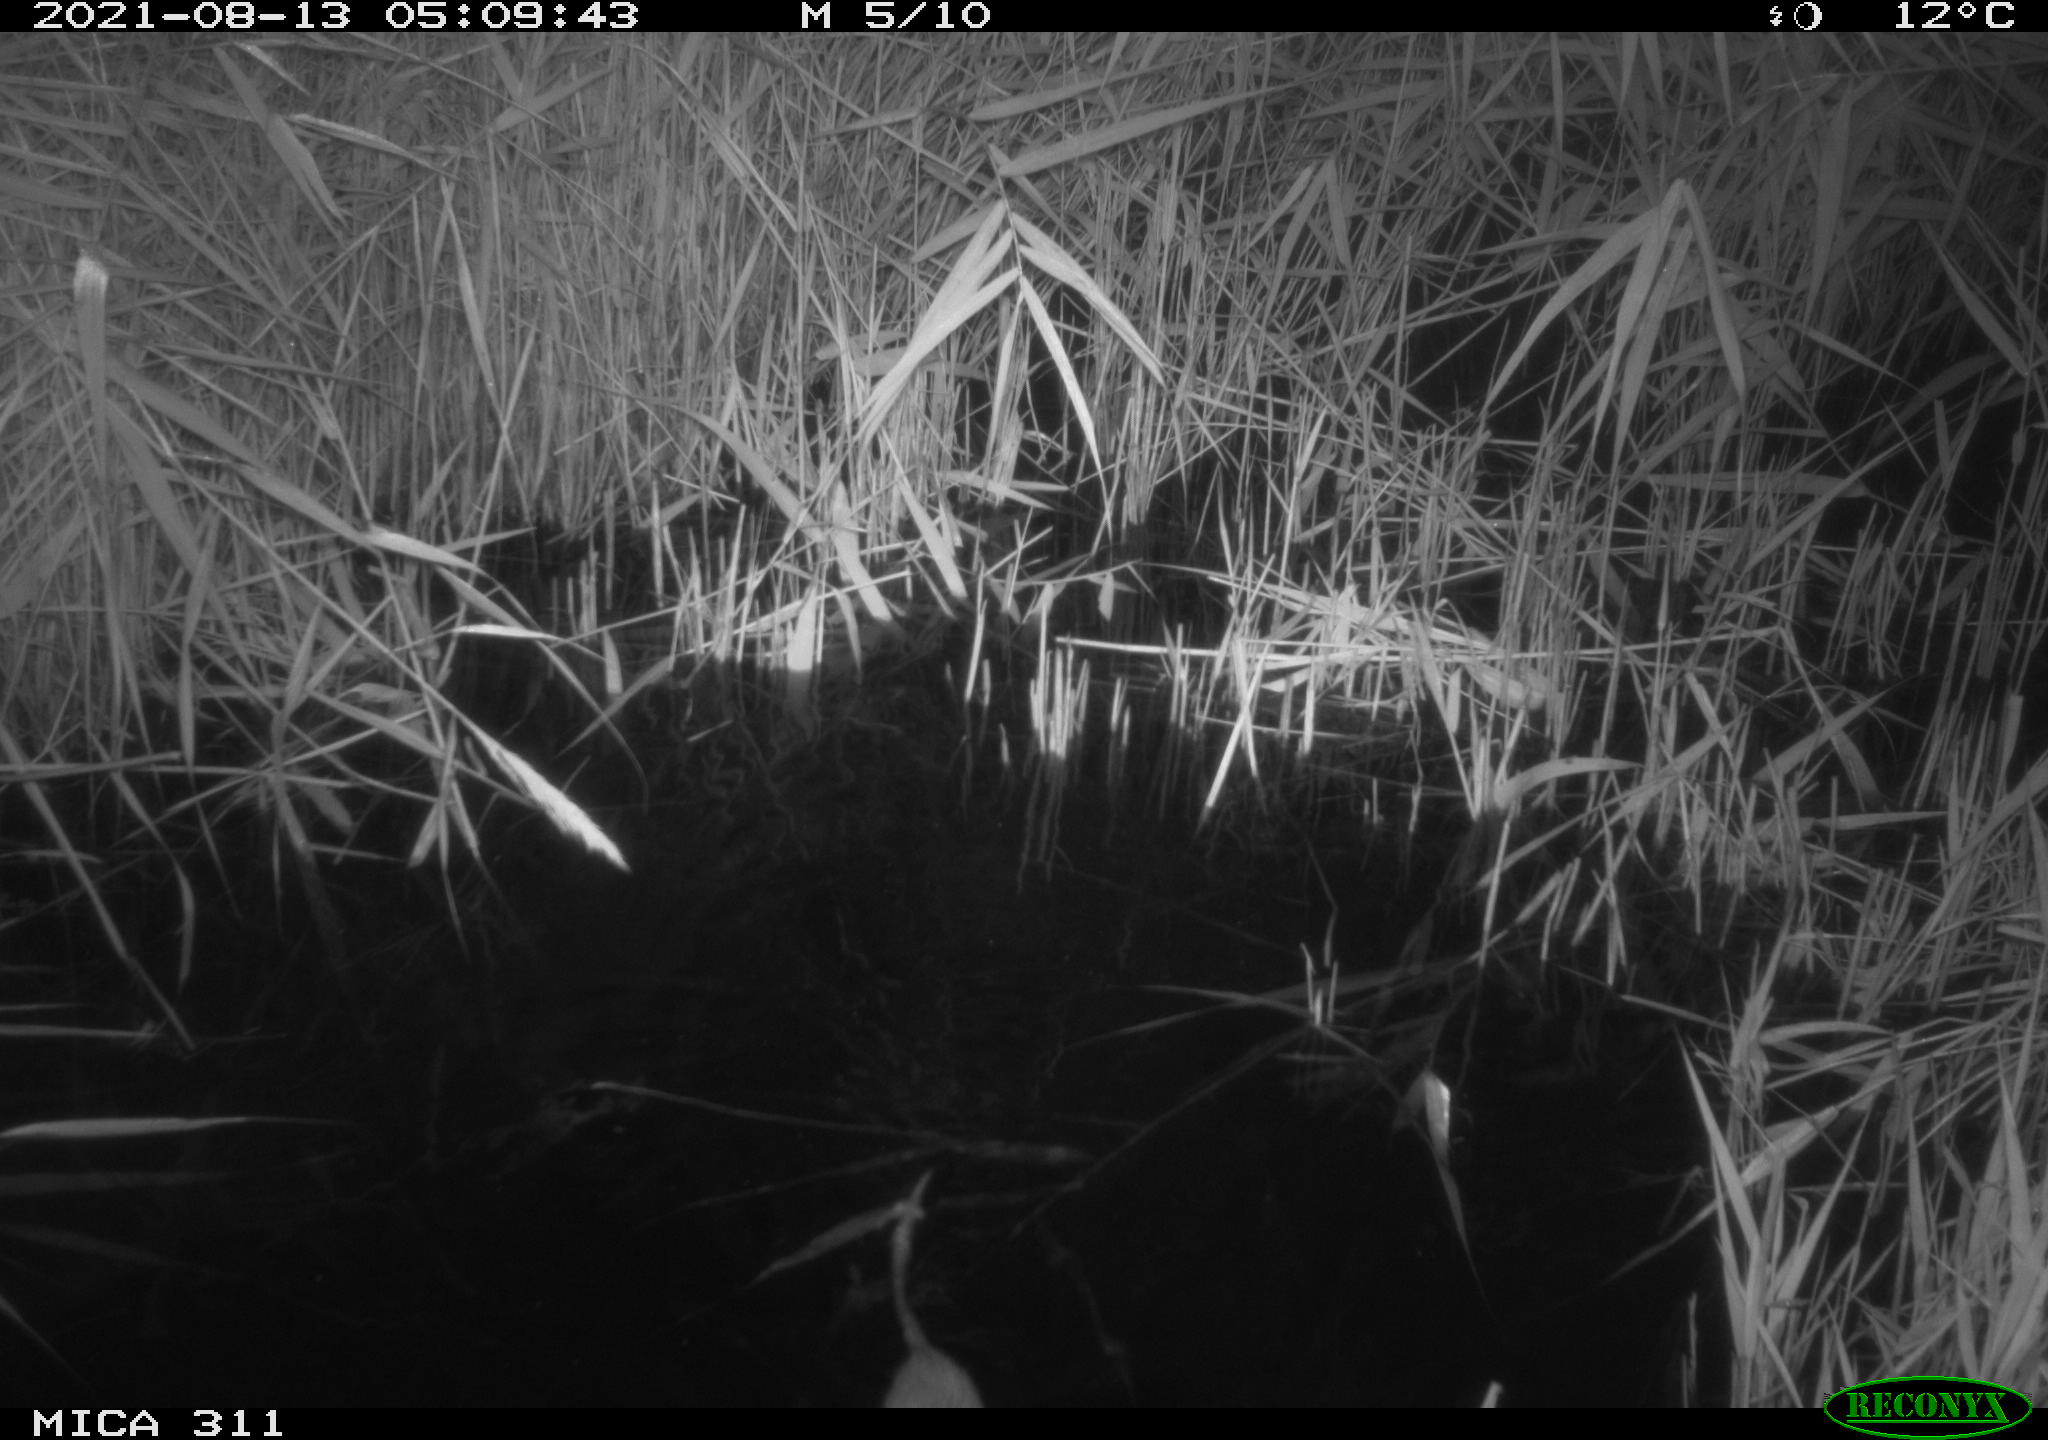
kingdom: Animalia
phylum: Chordata
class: Mammalia
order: Rodentia
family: Muridae
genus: Rattus
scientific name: Rattus norvegicus
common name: Brown rat
